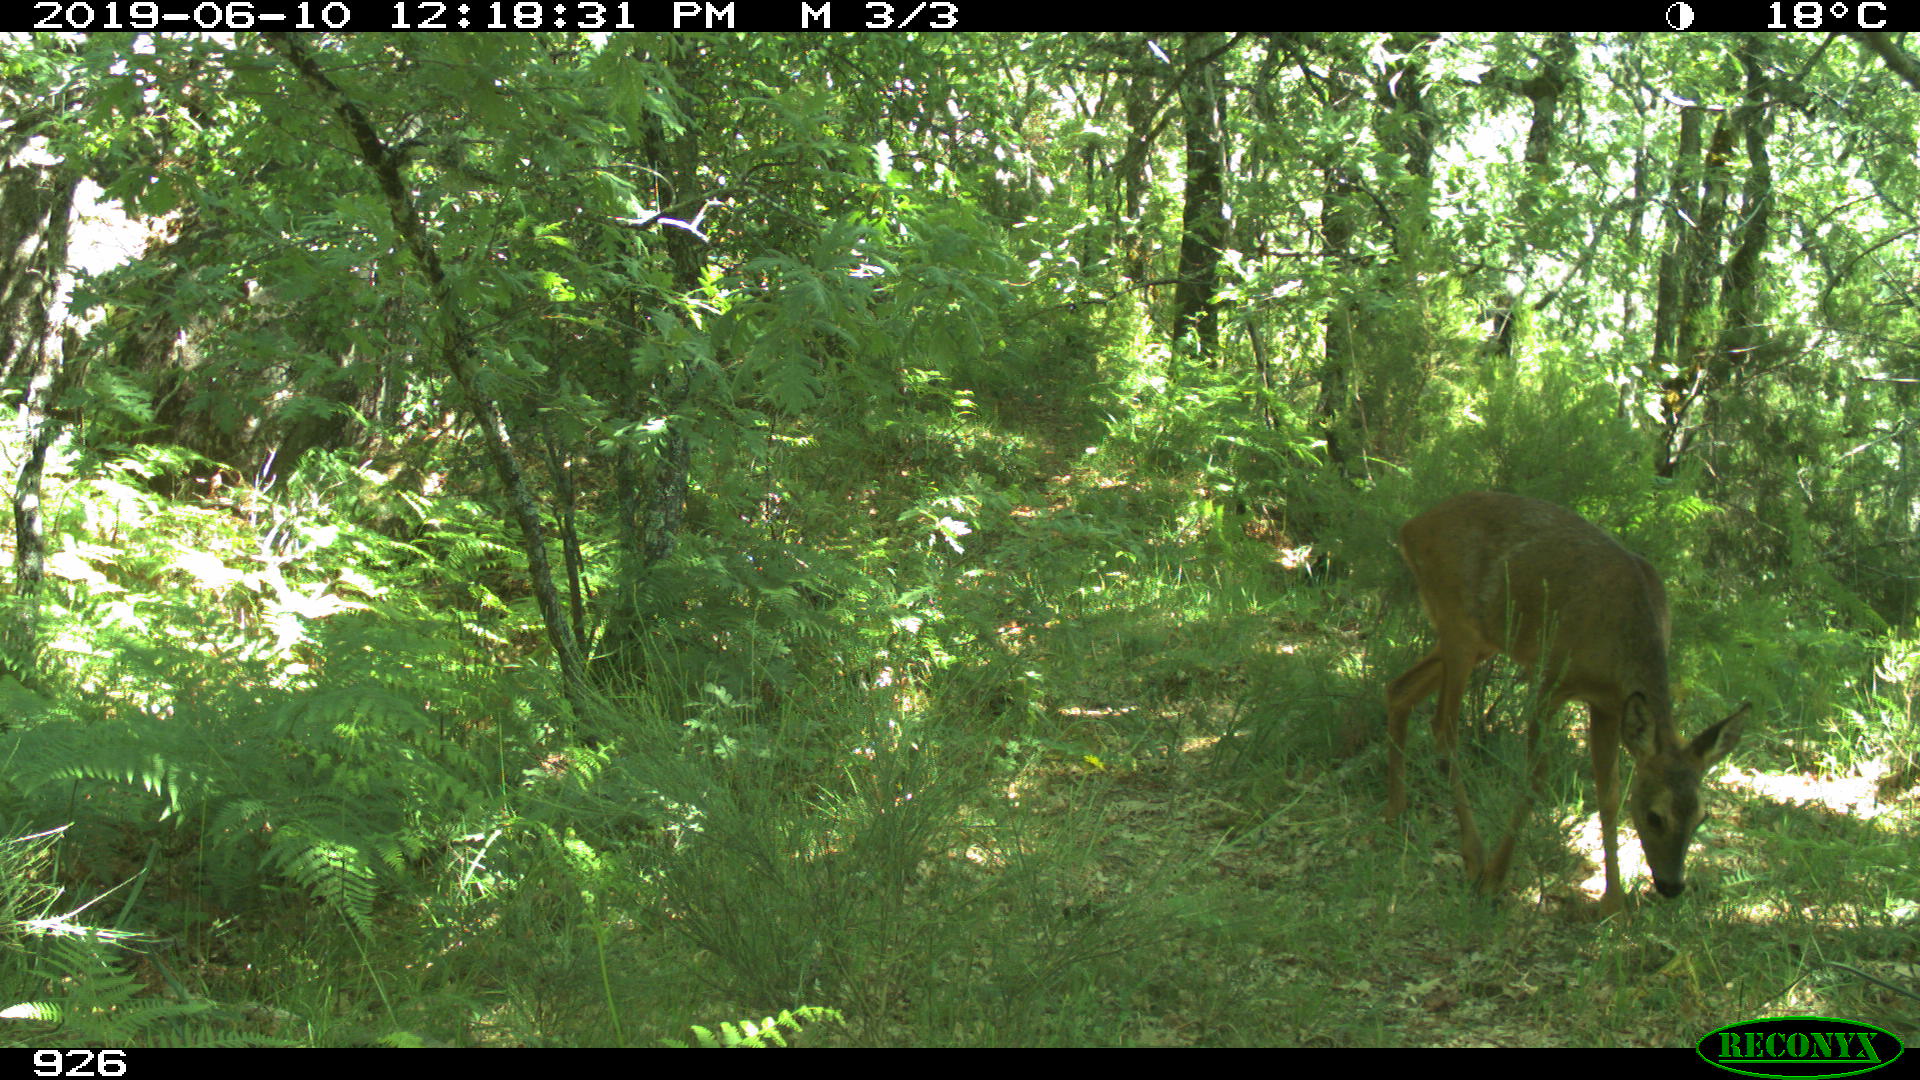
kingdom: Animalia
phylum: Chordata
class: Mammalia
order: Artiodactyla
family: Cervidae
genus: Capreolus
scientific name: Capreolus capreolus
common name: Western roe deer
